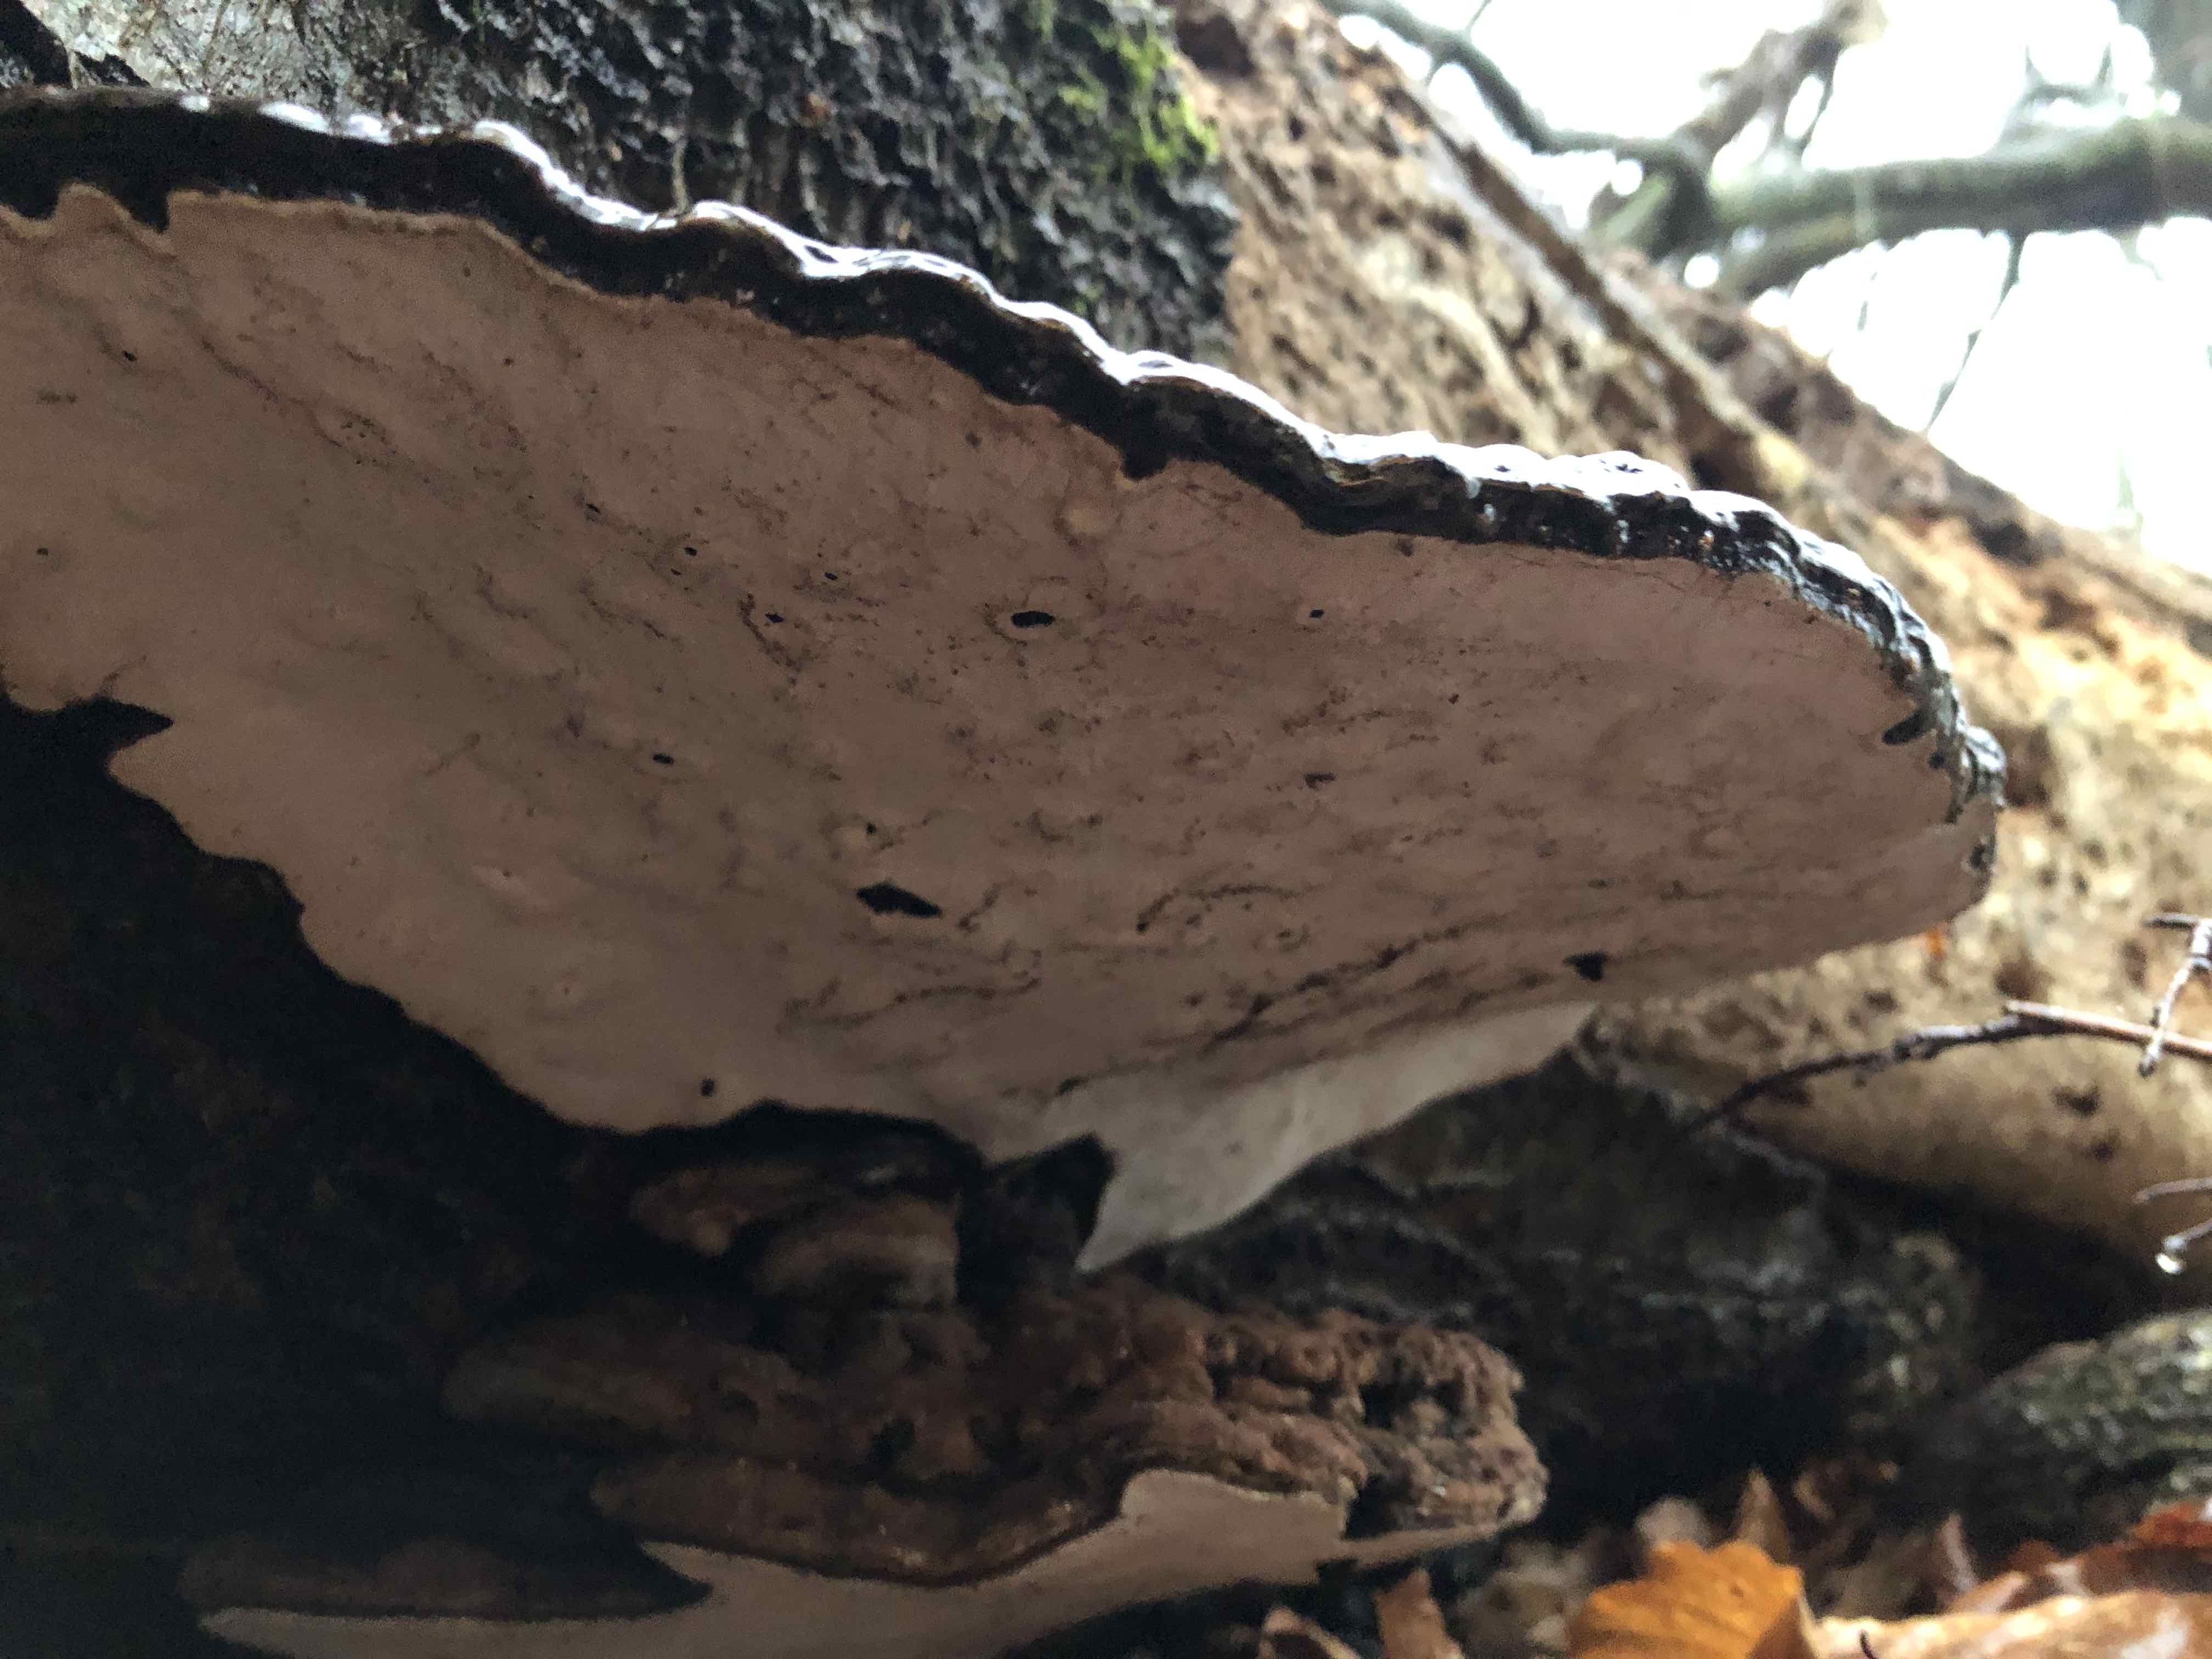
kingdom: Fungi
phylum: Basidiomycota
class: Agaricomycetes
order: Polyporales
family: Polyporaceae
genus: Ganoderma
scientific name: Ganoderma applanatum
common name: flad lakporesvamp
